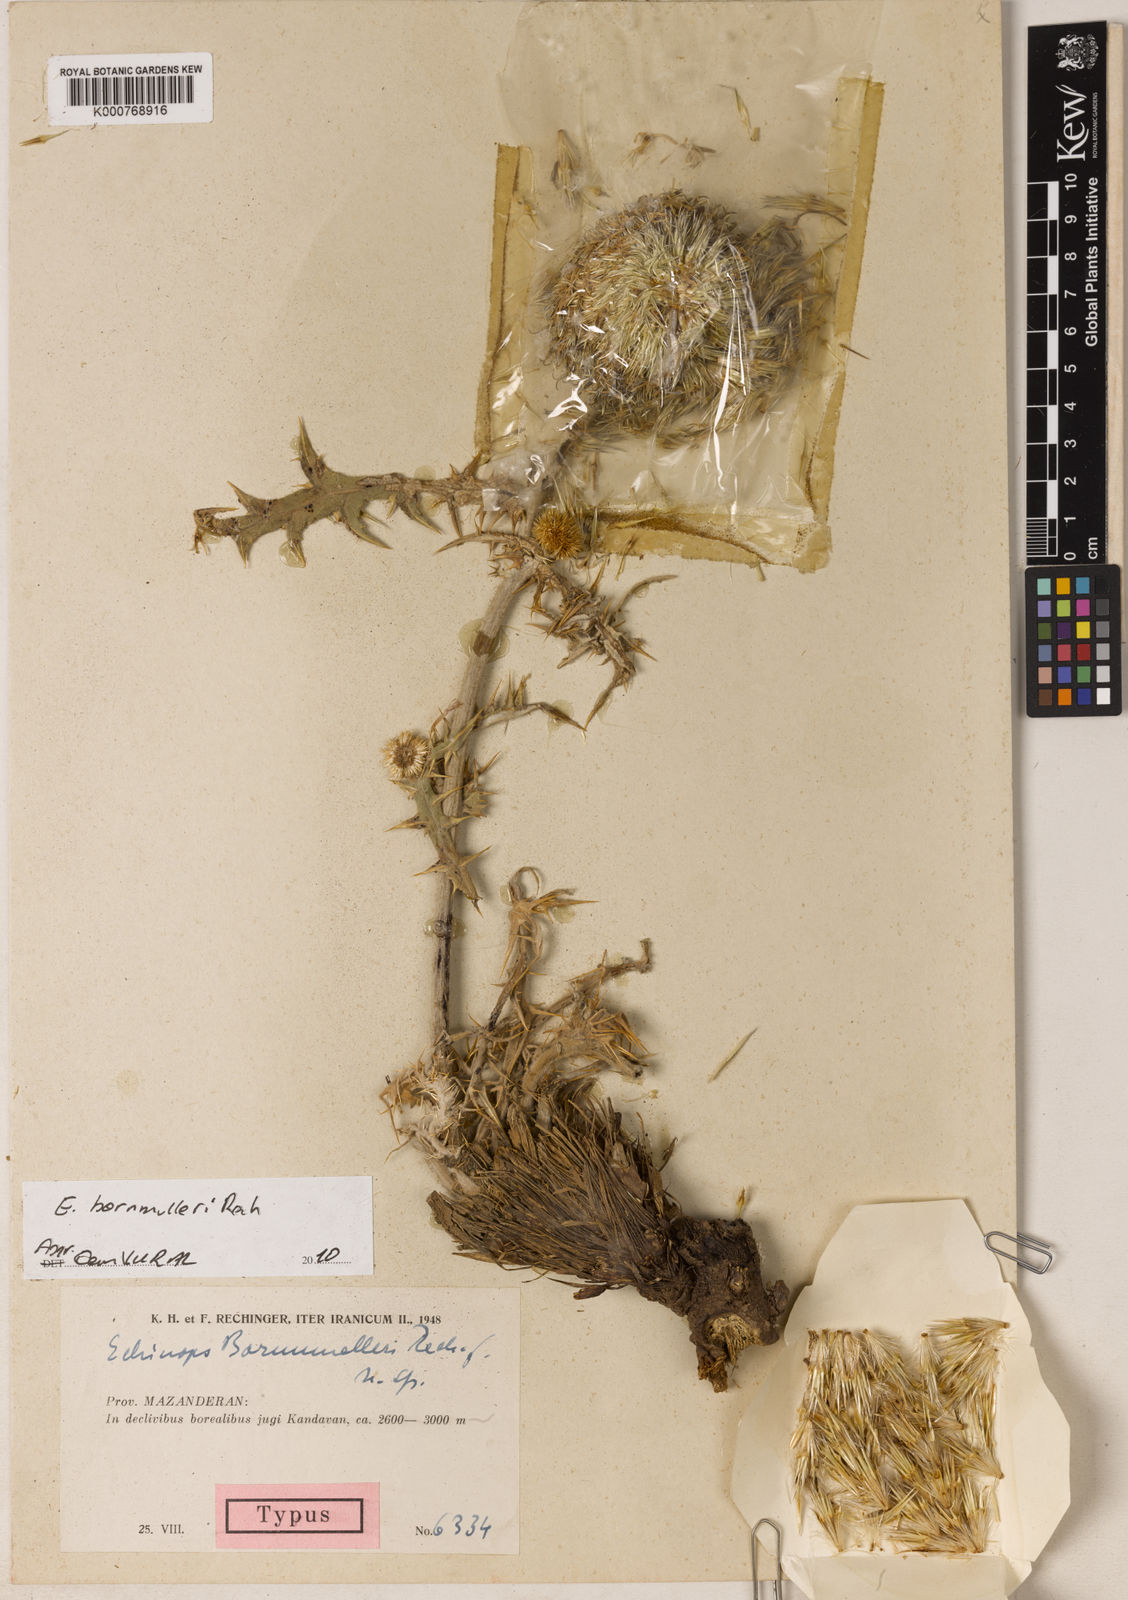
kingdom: Plantae
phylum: Tracheophyta
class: Magnoliopsida
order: Asterales
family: Asteraceae
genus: Echinops
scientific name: Echinops pungens
